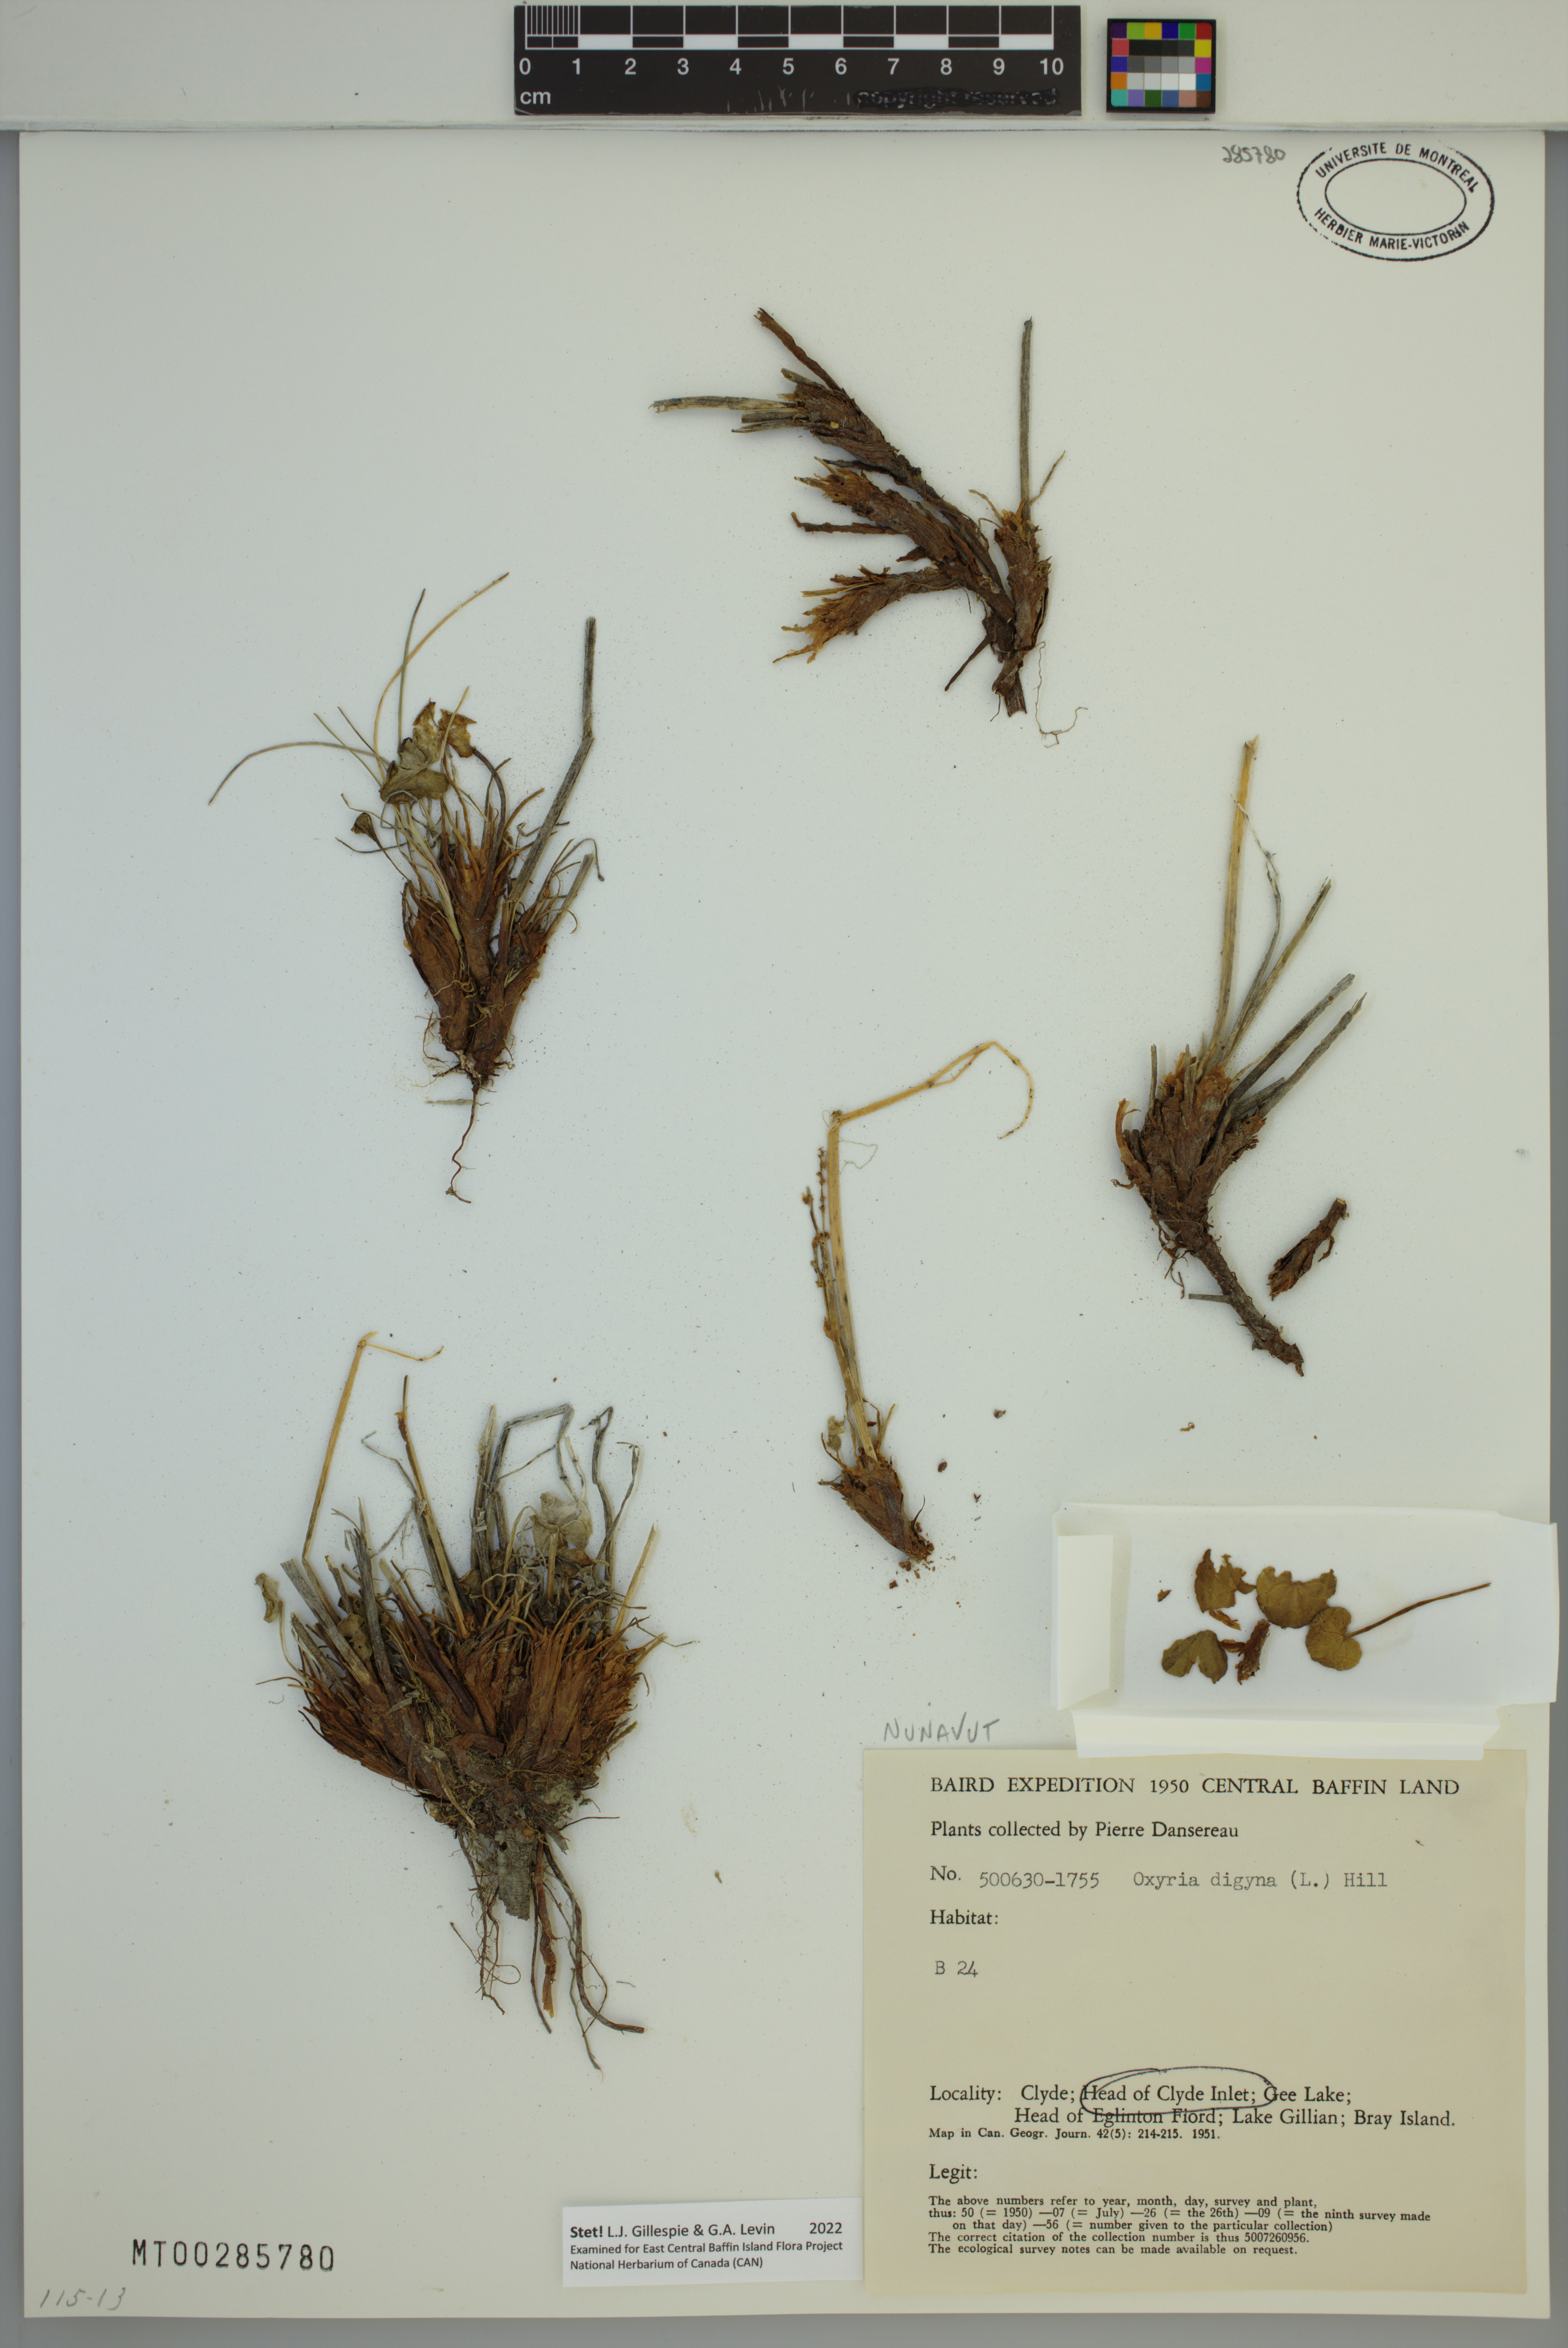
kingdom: Plantae
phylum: Tracheophyta
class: Magnoliopsida
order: Caryophyllales
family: Polygonaceae
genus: Oxyria
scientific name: Oxyria digyna
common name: Alpine mountain-sorrel
